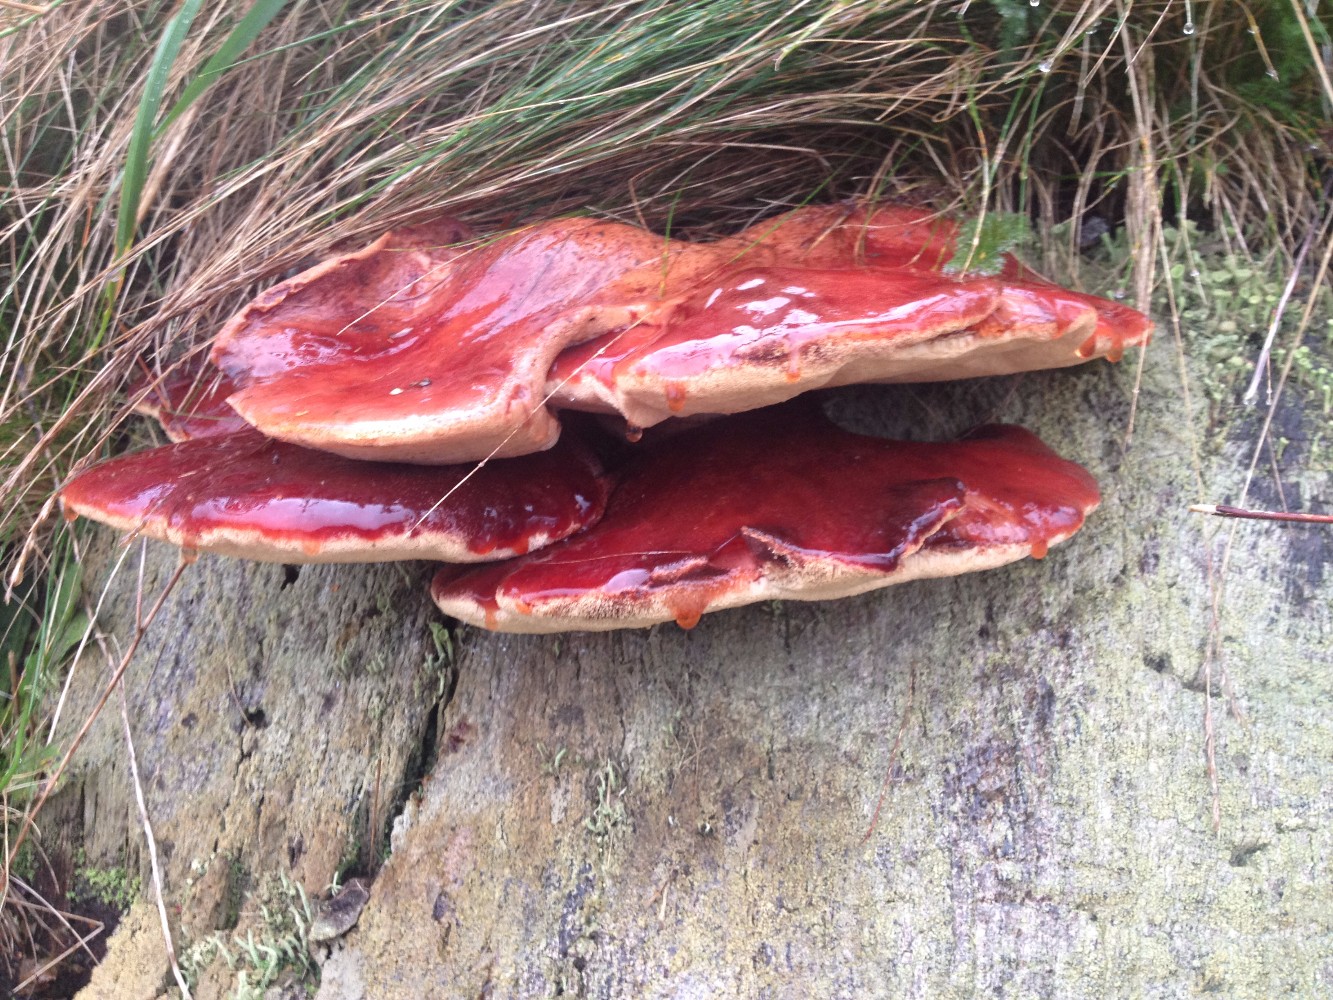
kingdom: Fungi
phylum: Basidiomycota
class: Agaricomycetes
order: Agaricales
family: Fistulinaceae
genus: Fistulina
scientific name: Fistulina hepatica
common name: oksetunge
